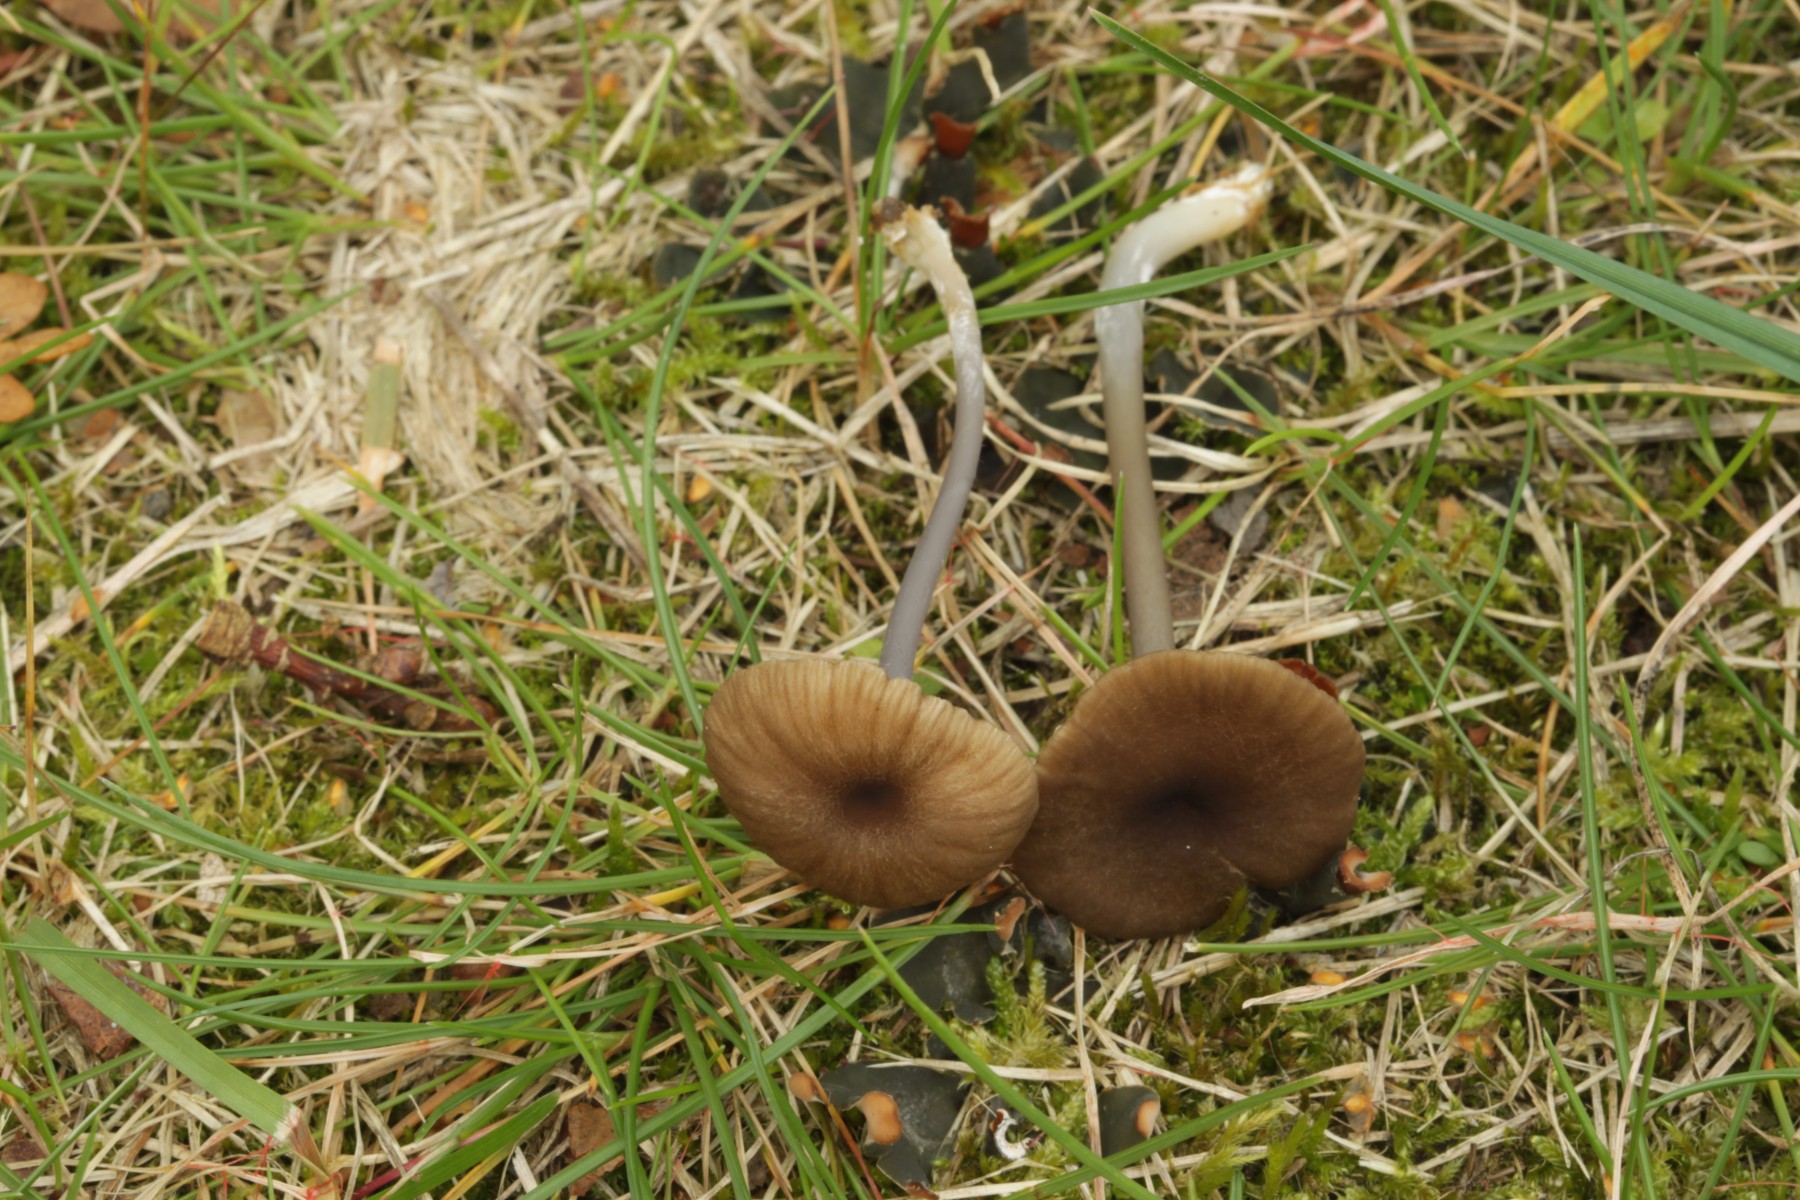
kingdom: Fungi
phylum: Basidiomycota
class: Agaricomycetes
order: Agaricales
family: Entolomataceae
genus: Entoloma
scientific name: Entoloma
